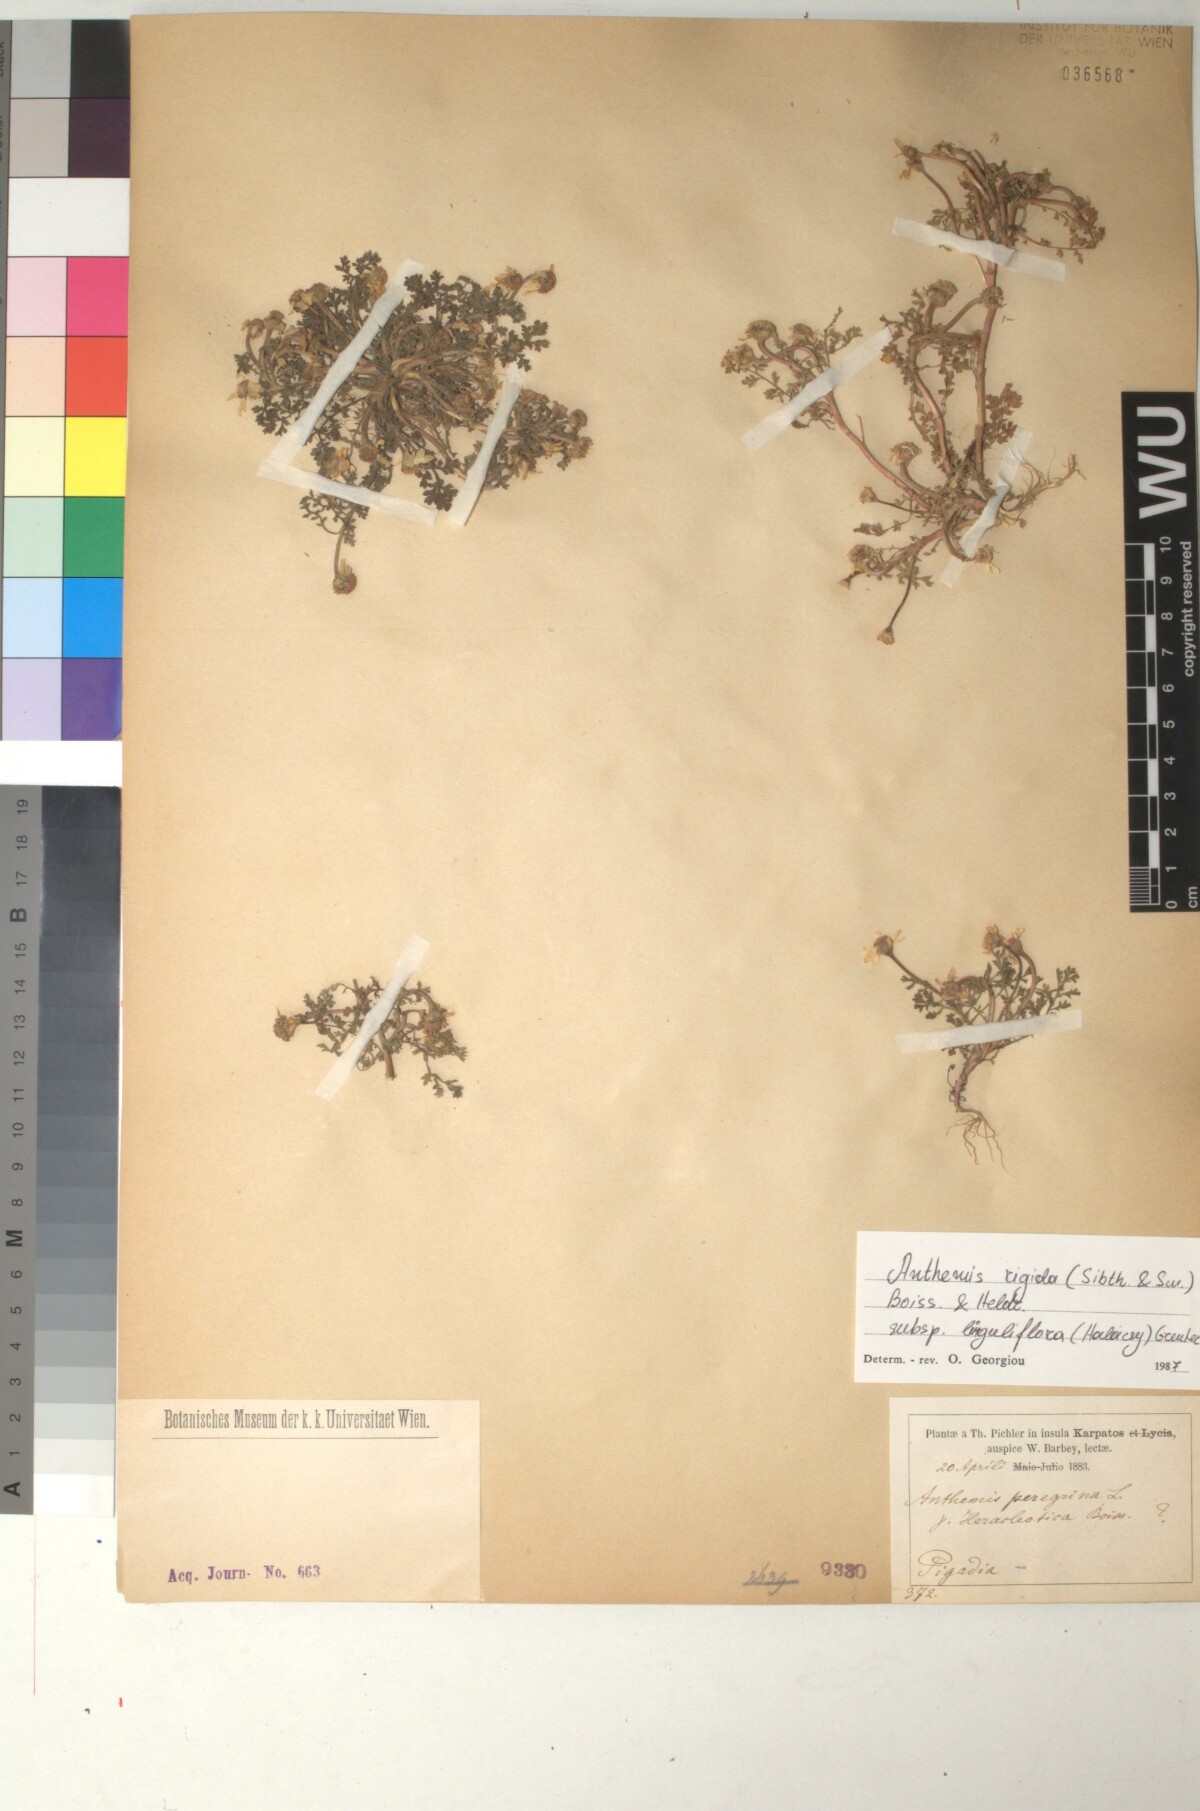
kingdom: Plantae
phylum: Tracheophyta
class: Magnoliopsida
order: Asterales
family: Asteraceae
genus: Anthemis
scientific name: Anthemis rigida
